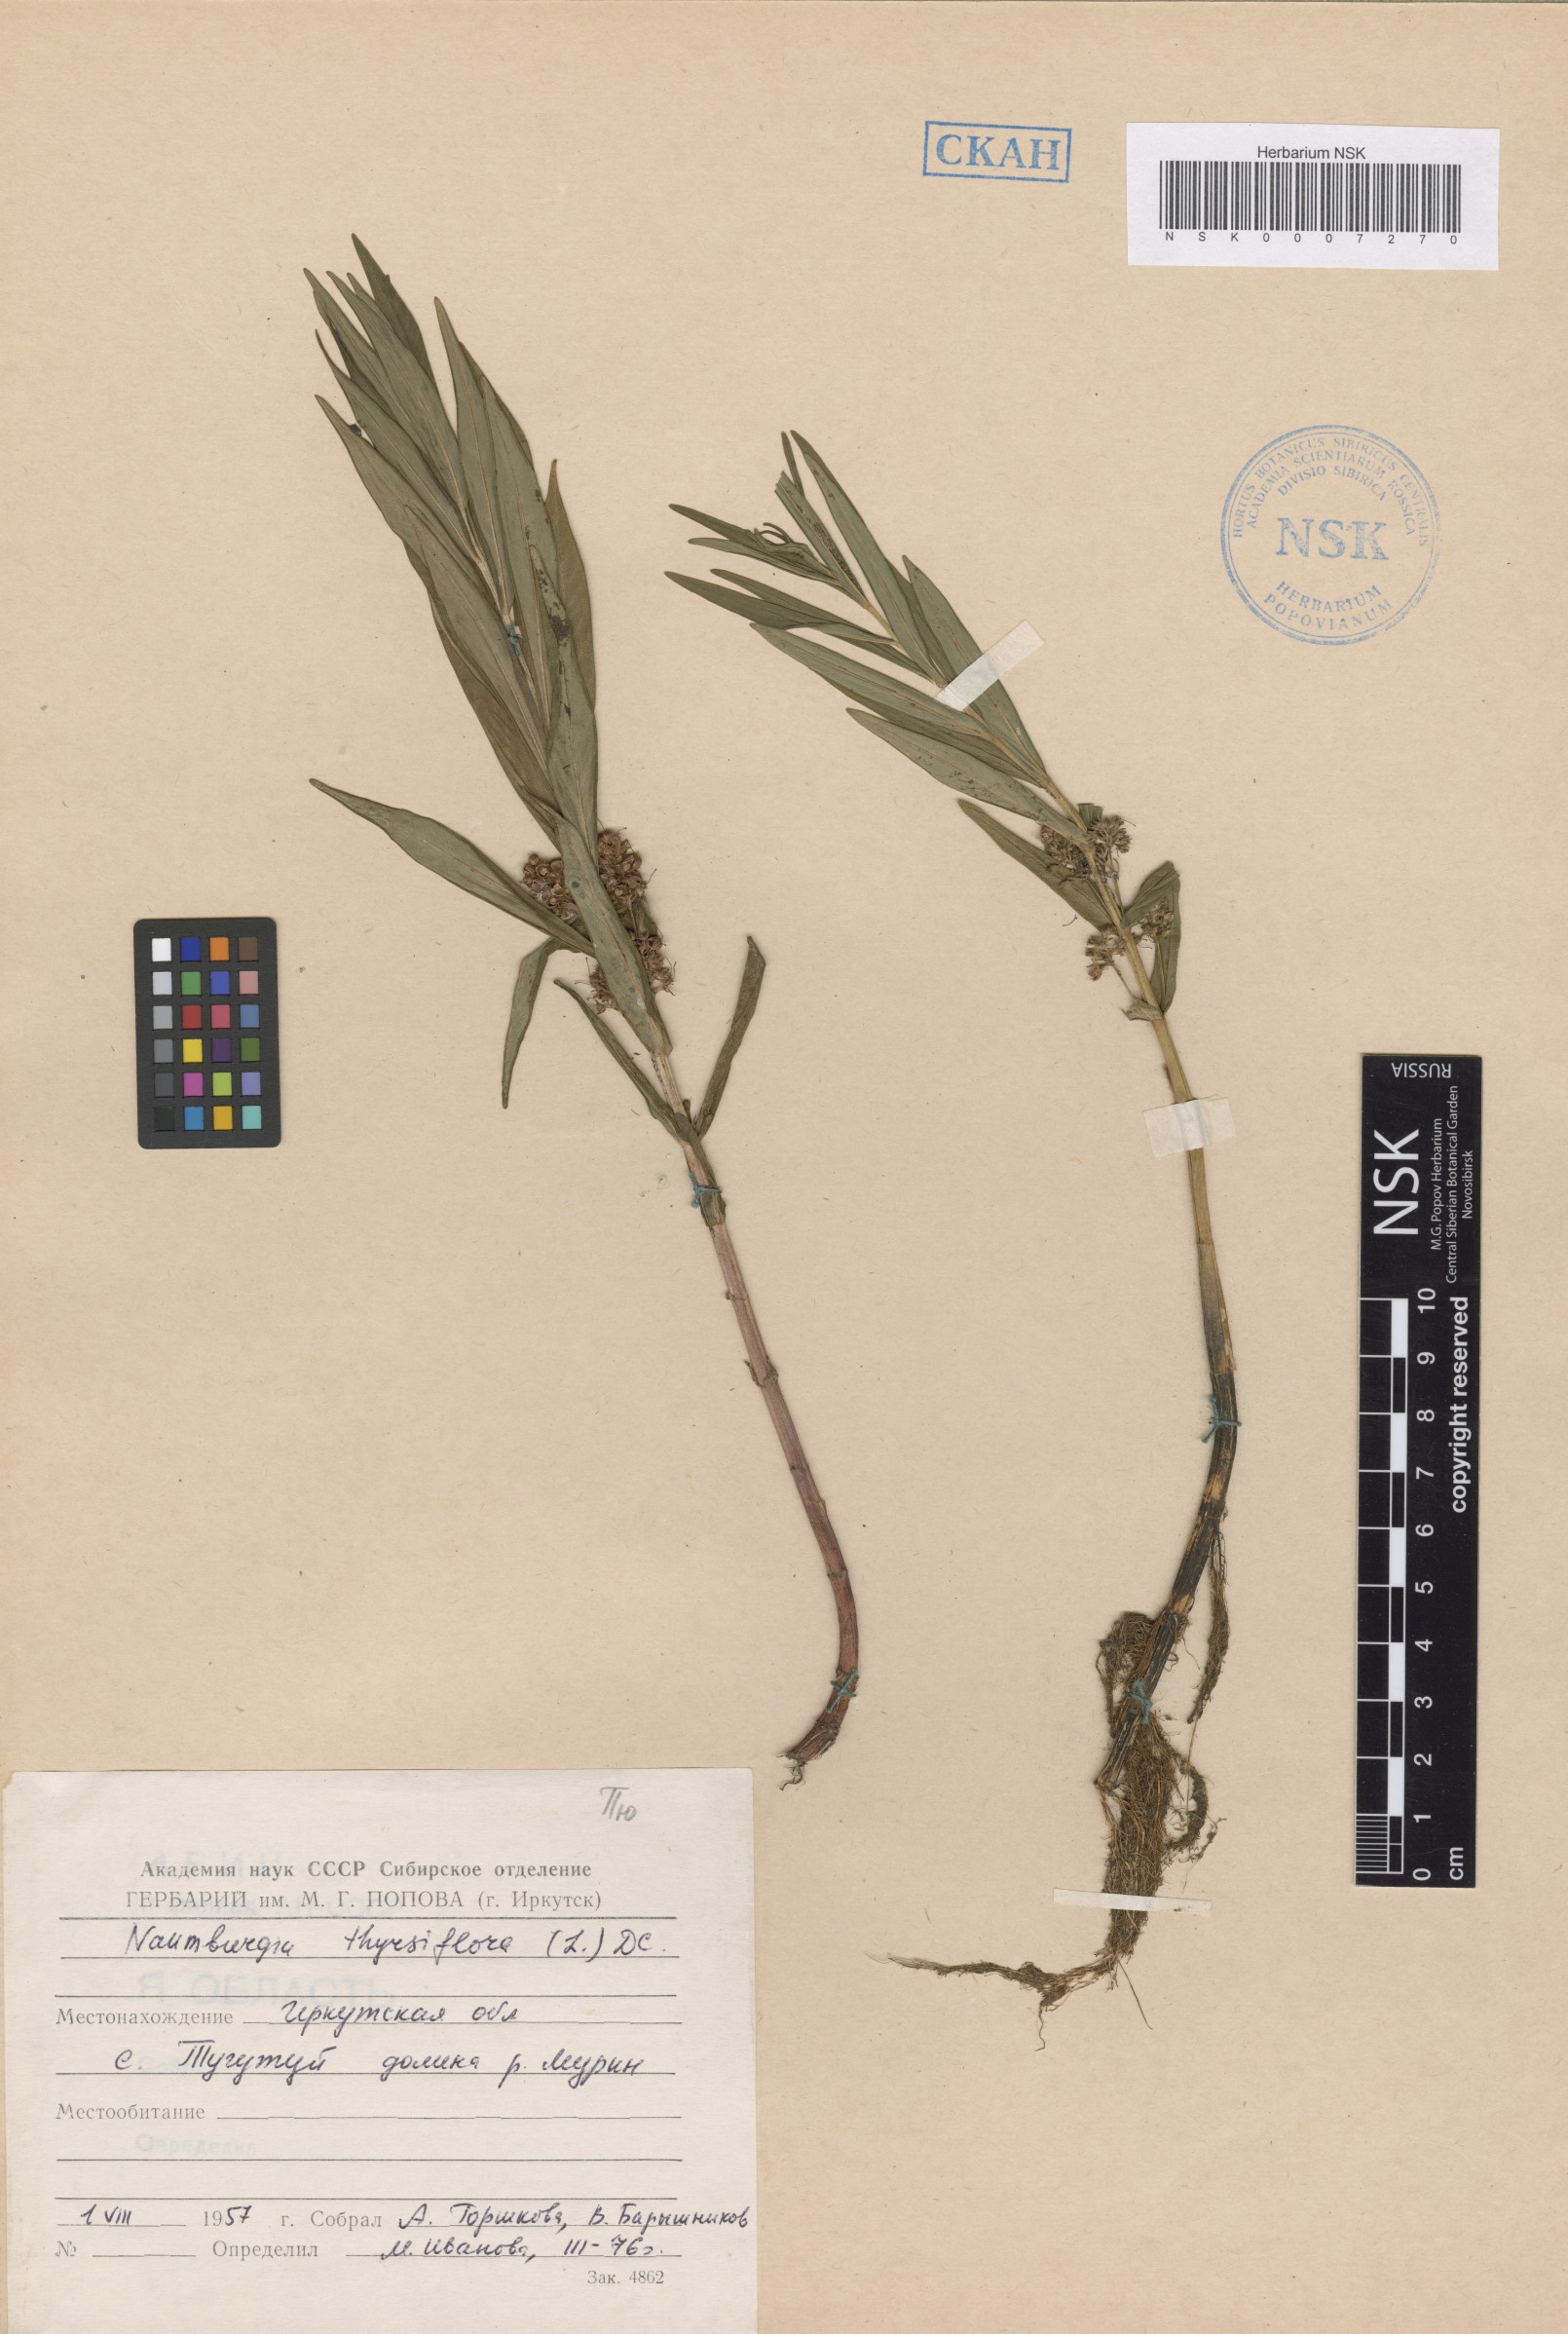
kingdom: Plantae
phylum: Tracheophyta
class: Magnoliopsida
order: Ericales
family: Primulaceae
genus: Lysimachia
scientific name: Lysimachia thyrsiflora
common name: Tufted loosestrife
